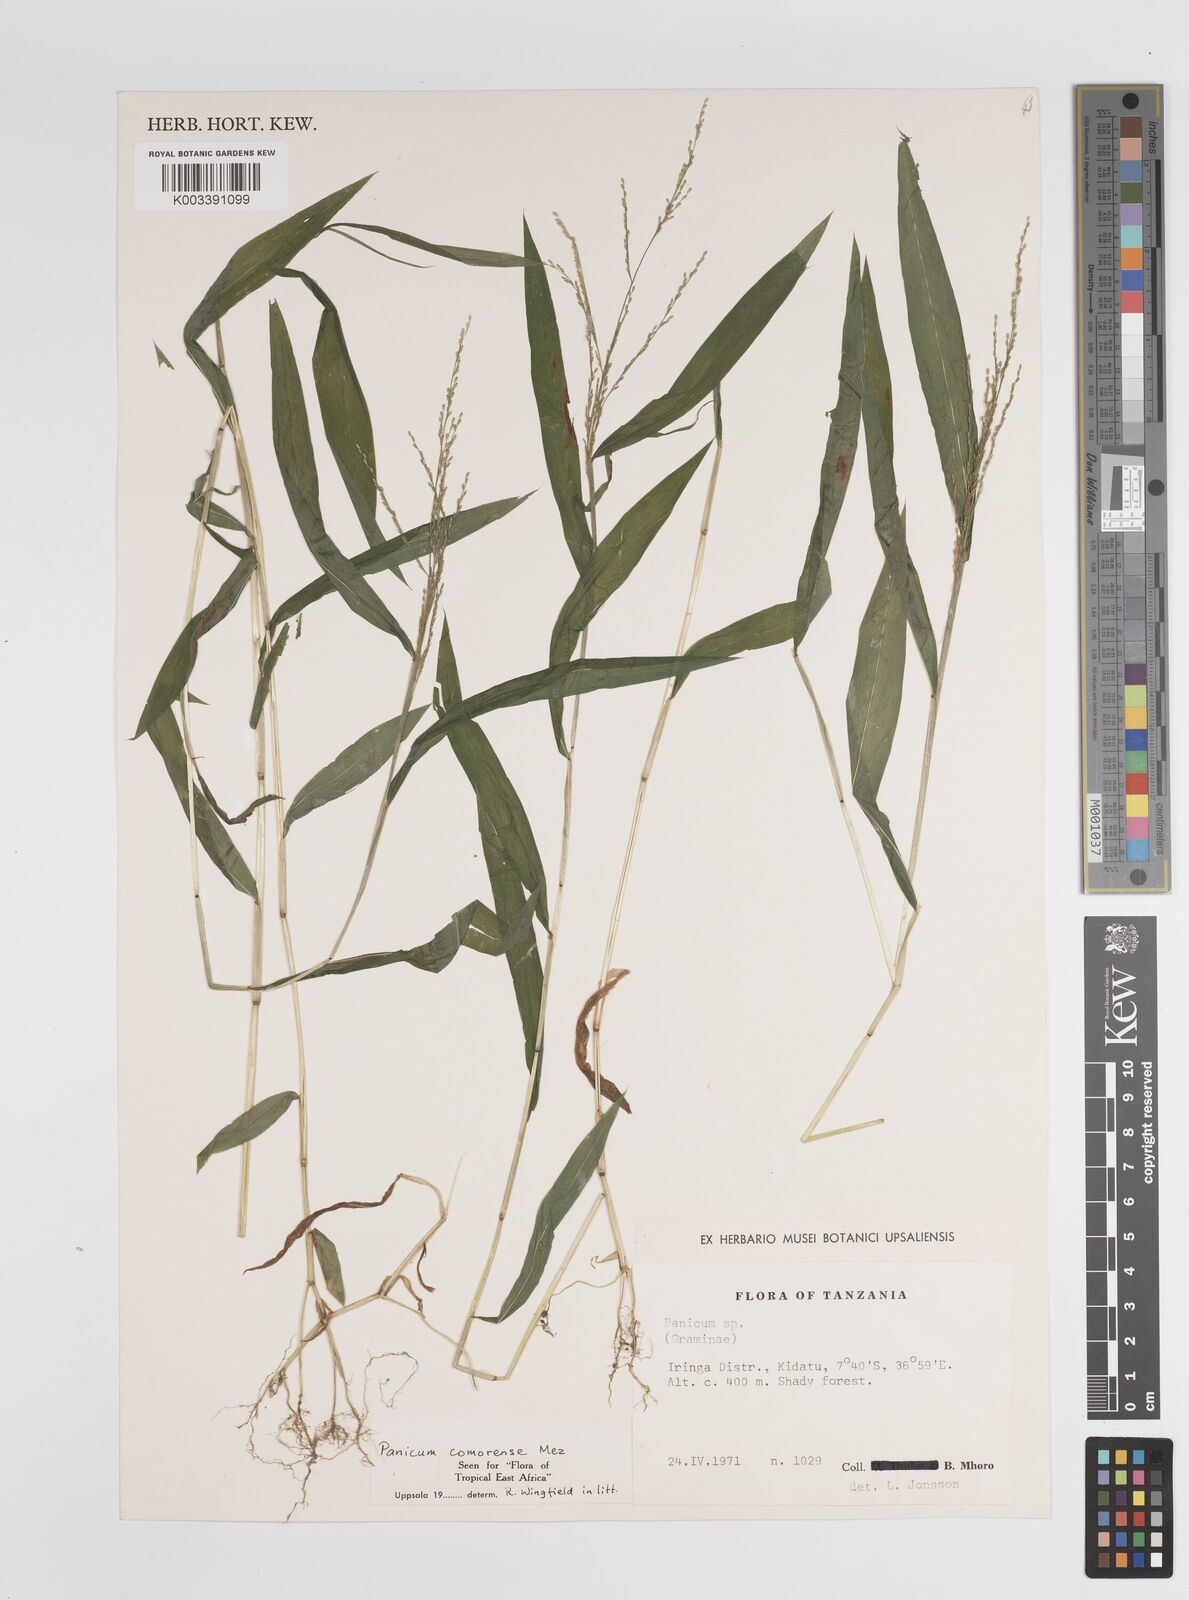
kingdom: Plantae
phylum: Tracheophyta
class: Liliopsida
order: Poales
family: Poaceae
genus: Panicum
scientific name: Panicum comorense
